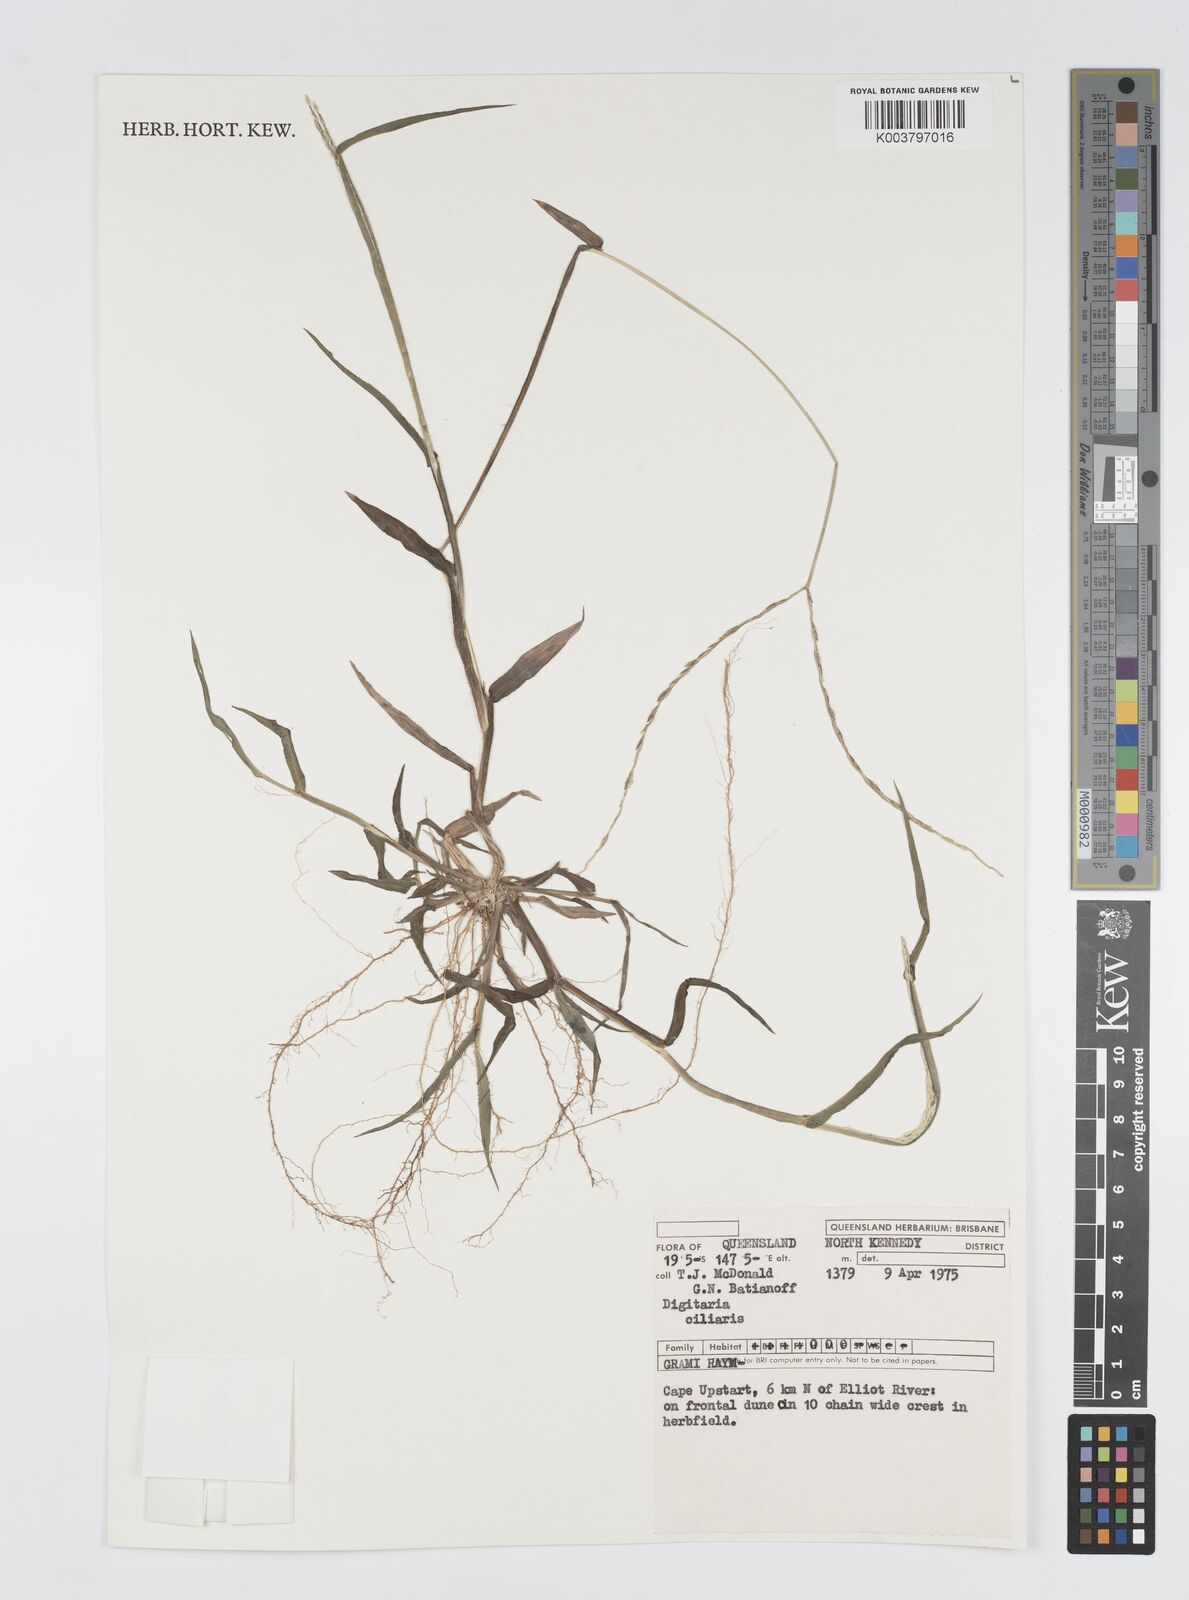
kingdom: Plantae
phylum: Tracheophyta
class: Liliopsida
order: Poales
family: Poaceae
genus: Digitaria
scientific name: Digitaria ciliaris
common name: Tropical finger-grass
